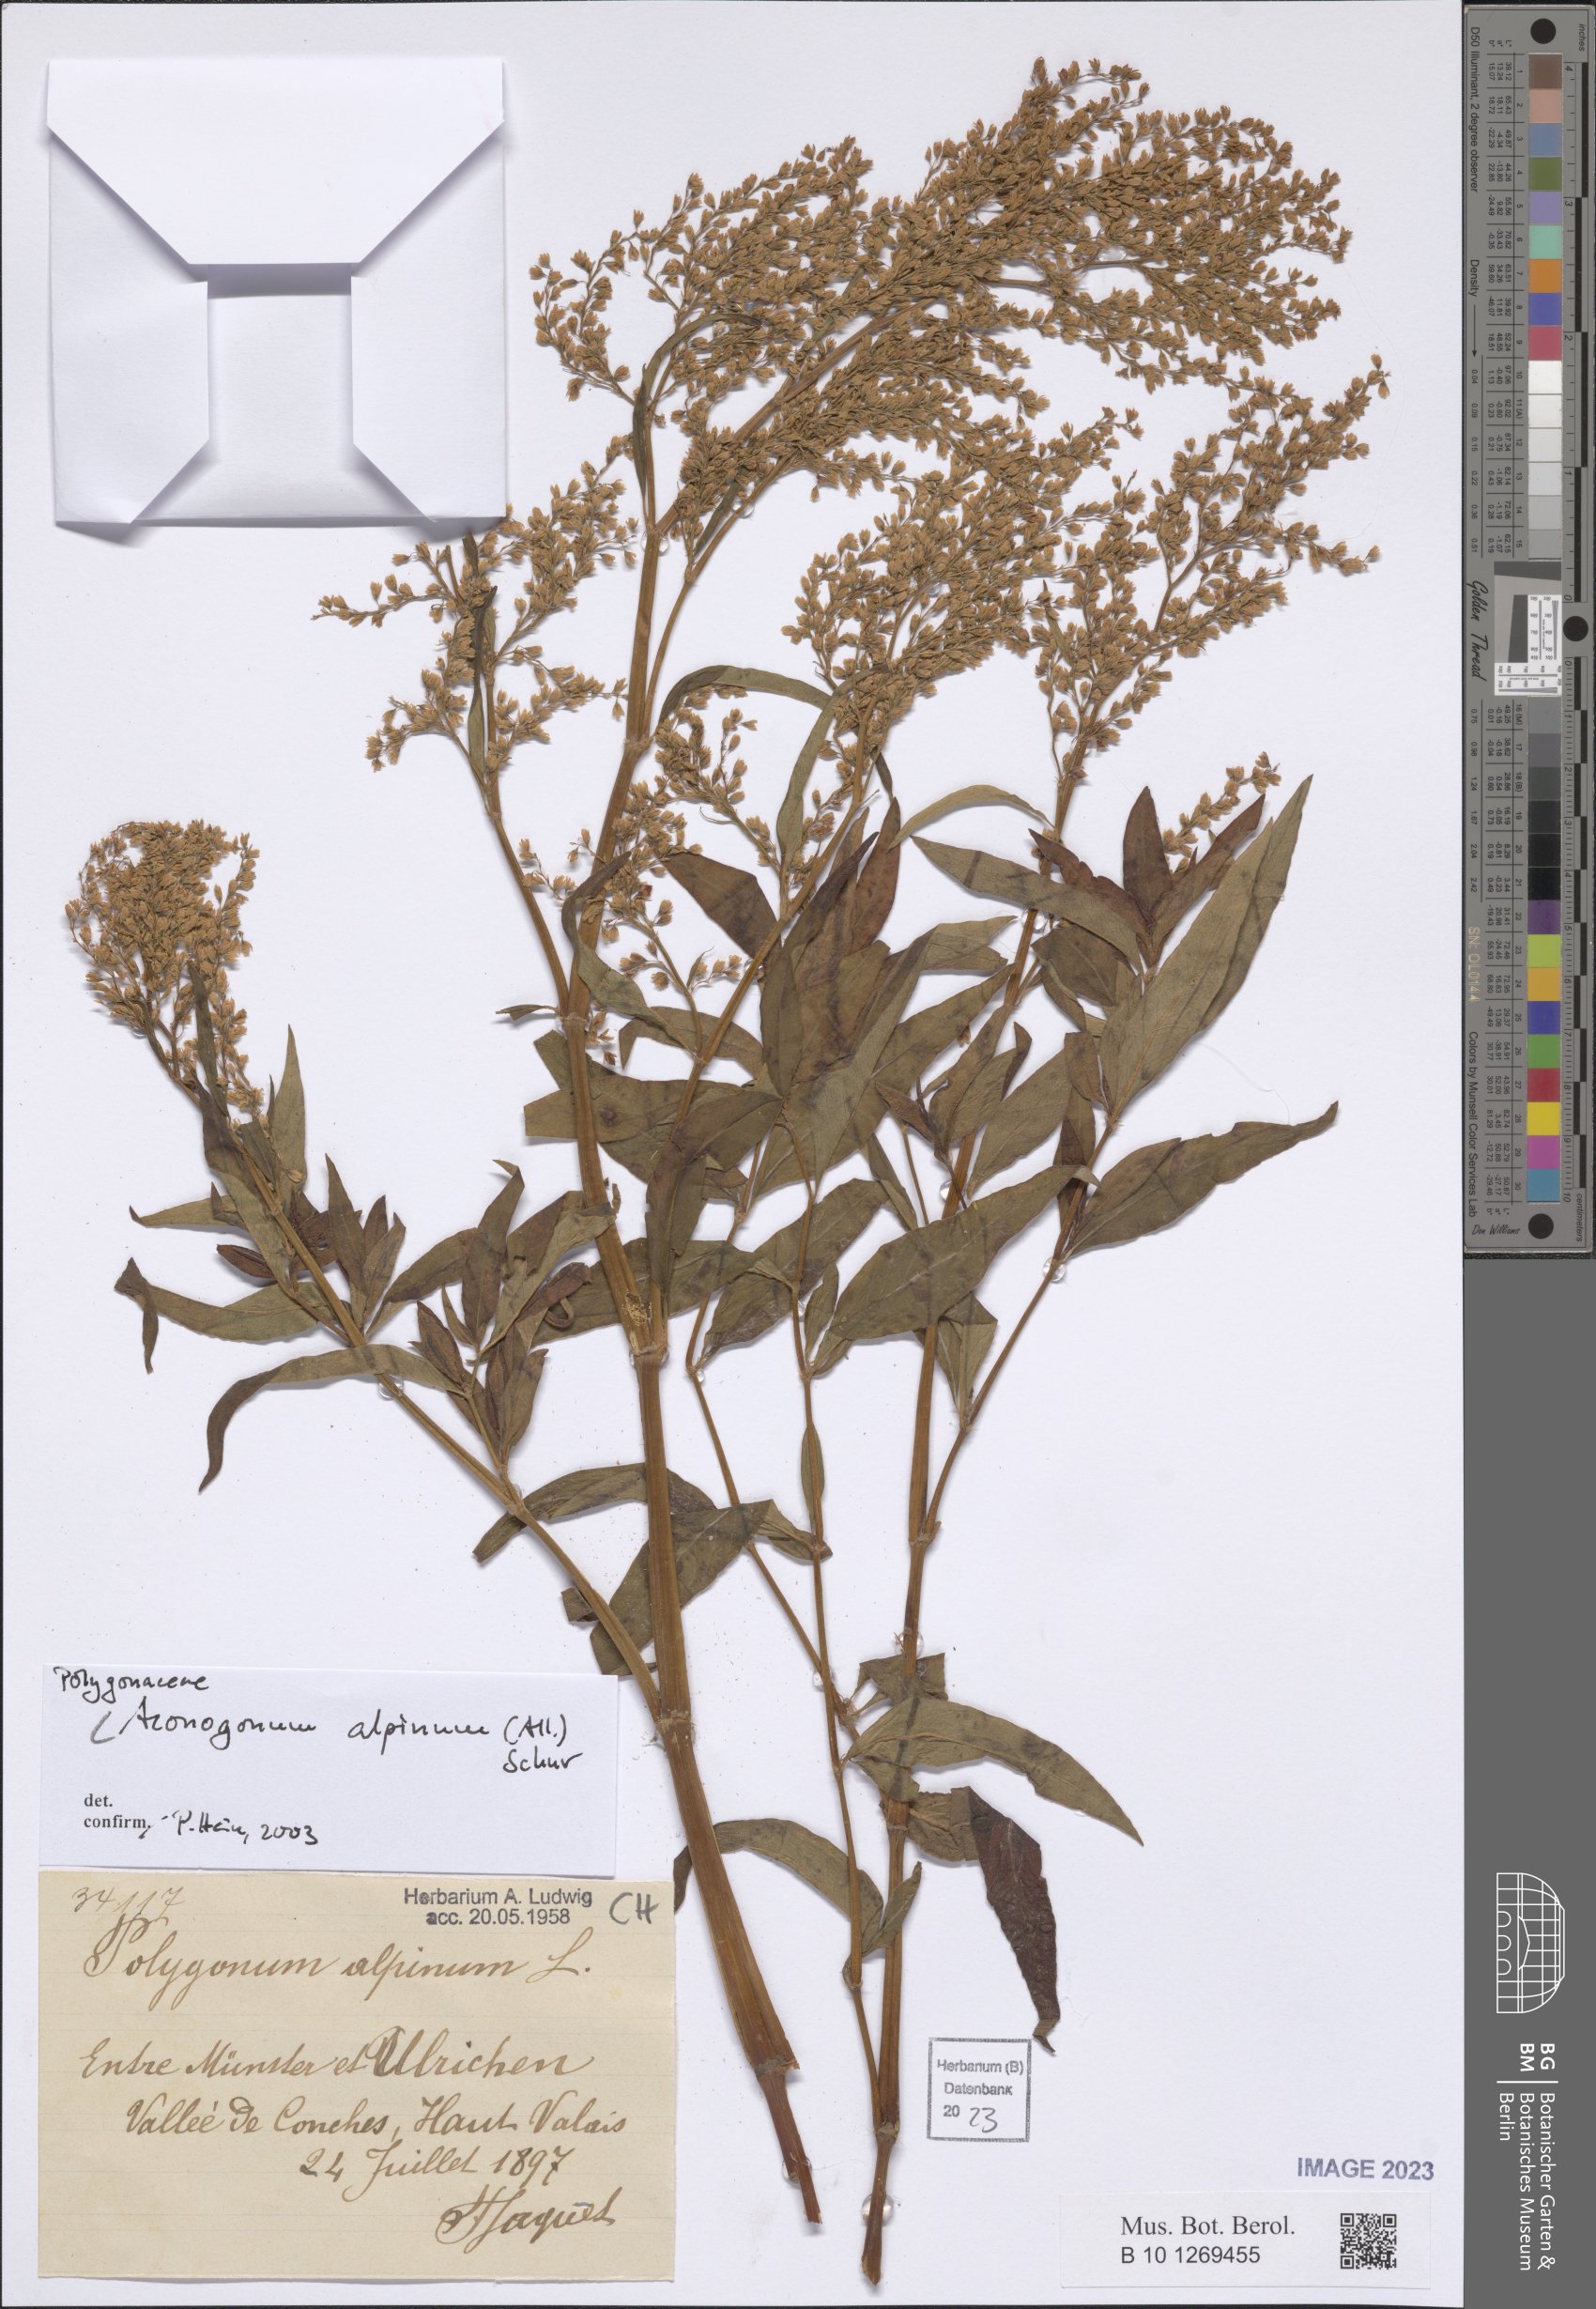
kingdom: Plantae
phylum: Tracheophyta
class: Magnoliopsida
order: Caryophyllales
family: Polygonaceae
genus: Koenigia
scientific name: Koenigia alpina
